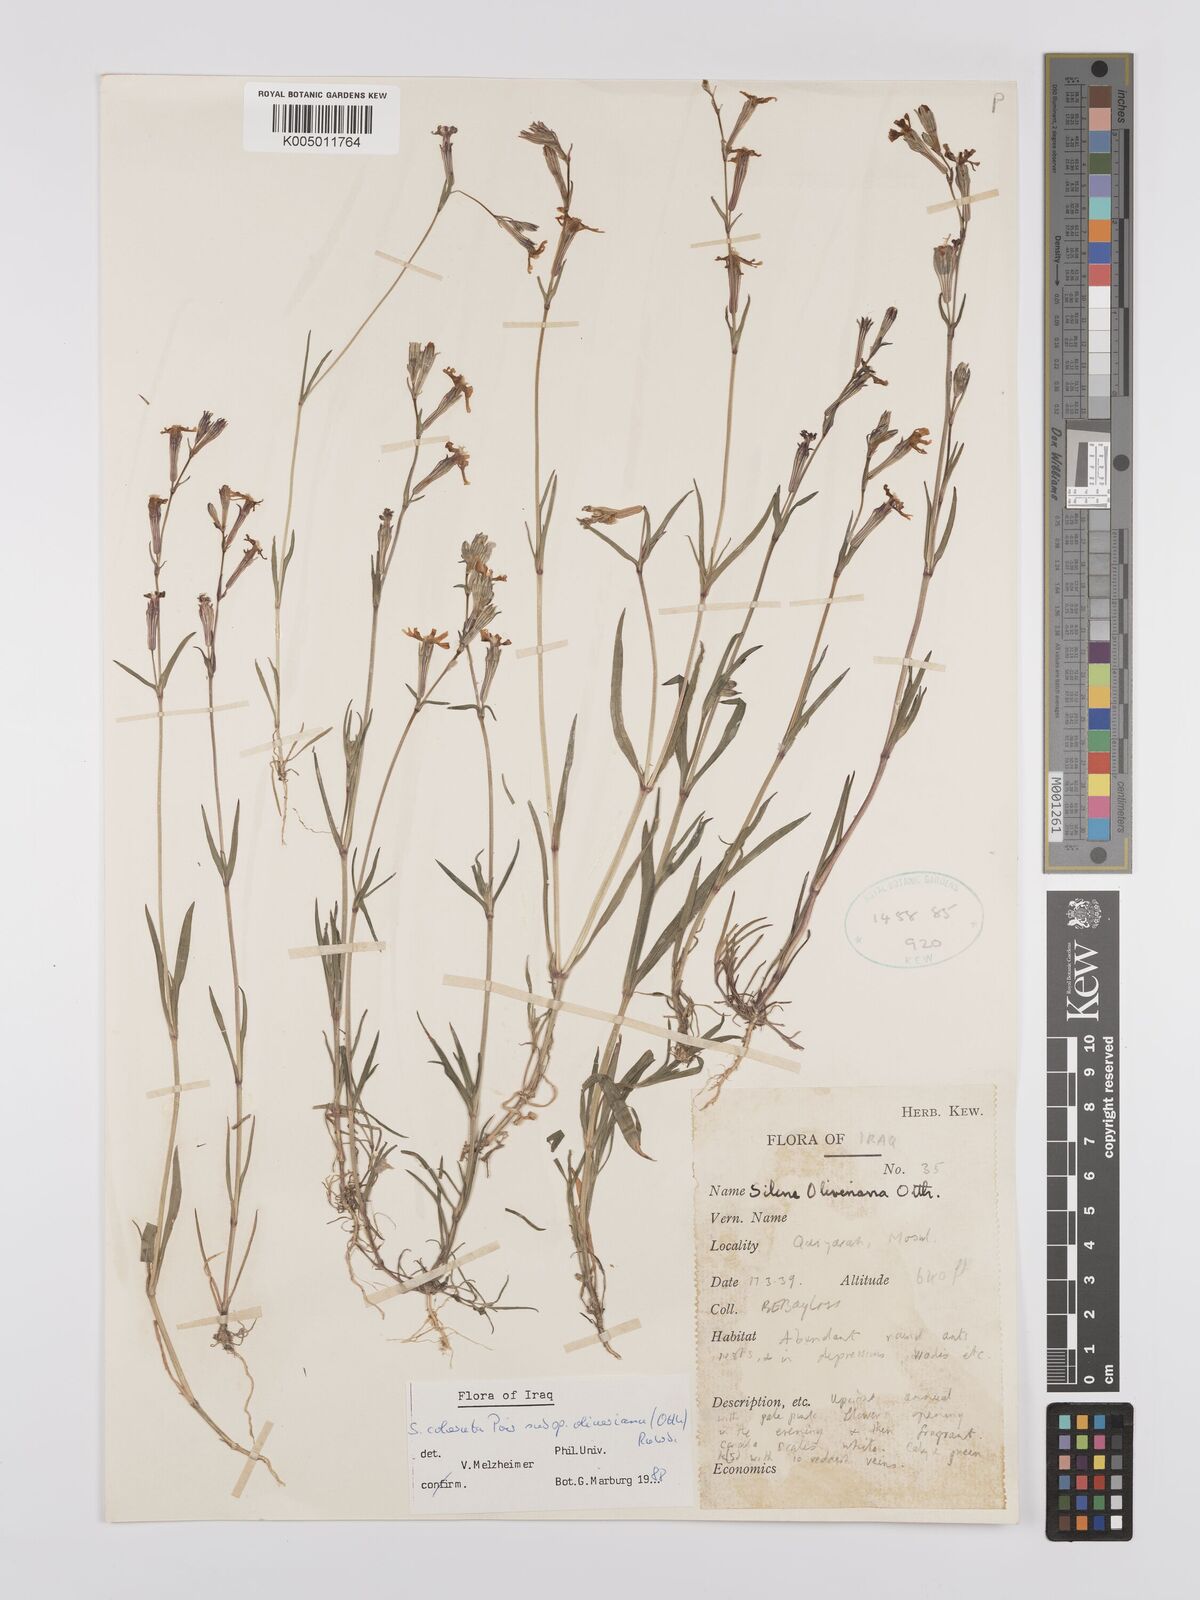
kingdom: Plantae
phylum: Tracheophyta
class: Magnoliopsida
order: Caryophyllales
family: Caryophyllaceae
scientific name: Caryophyllaceae
